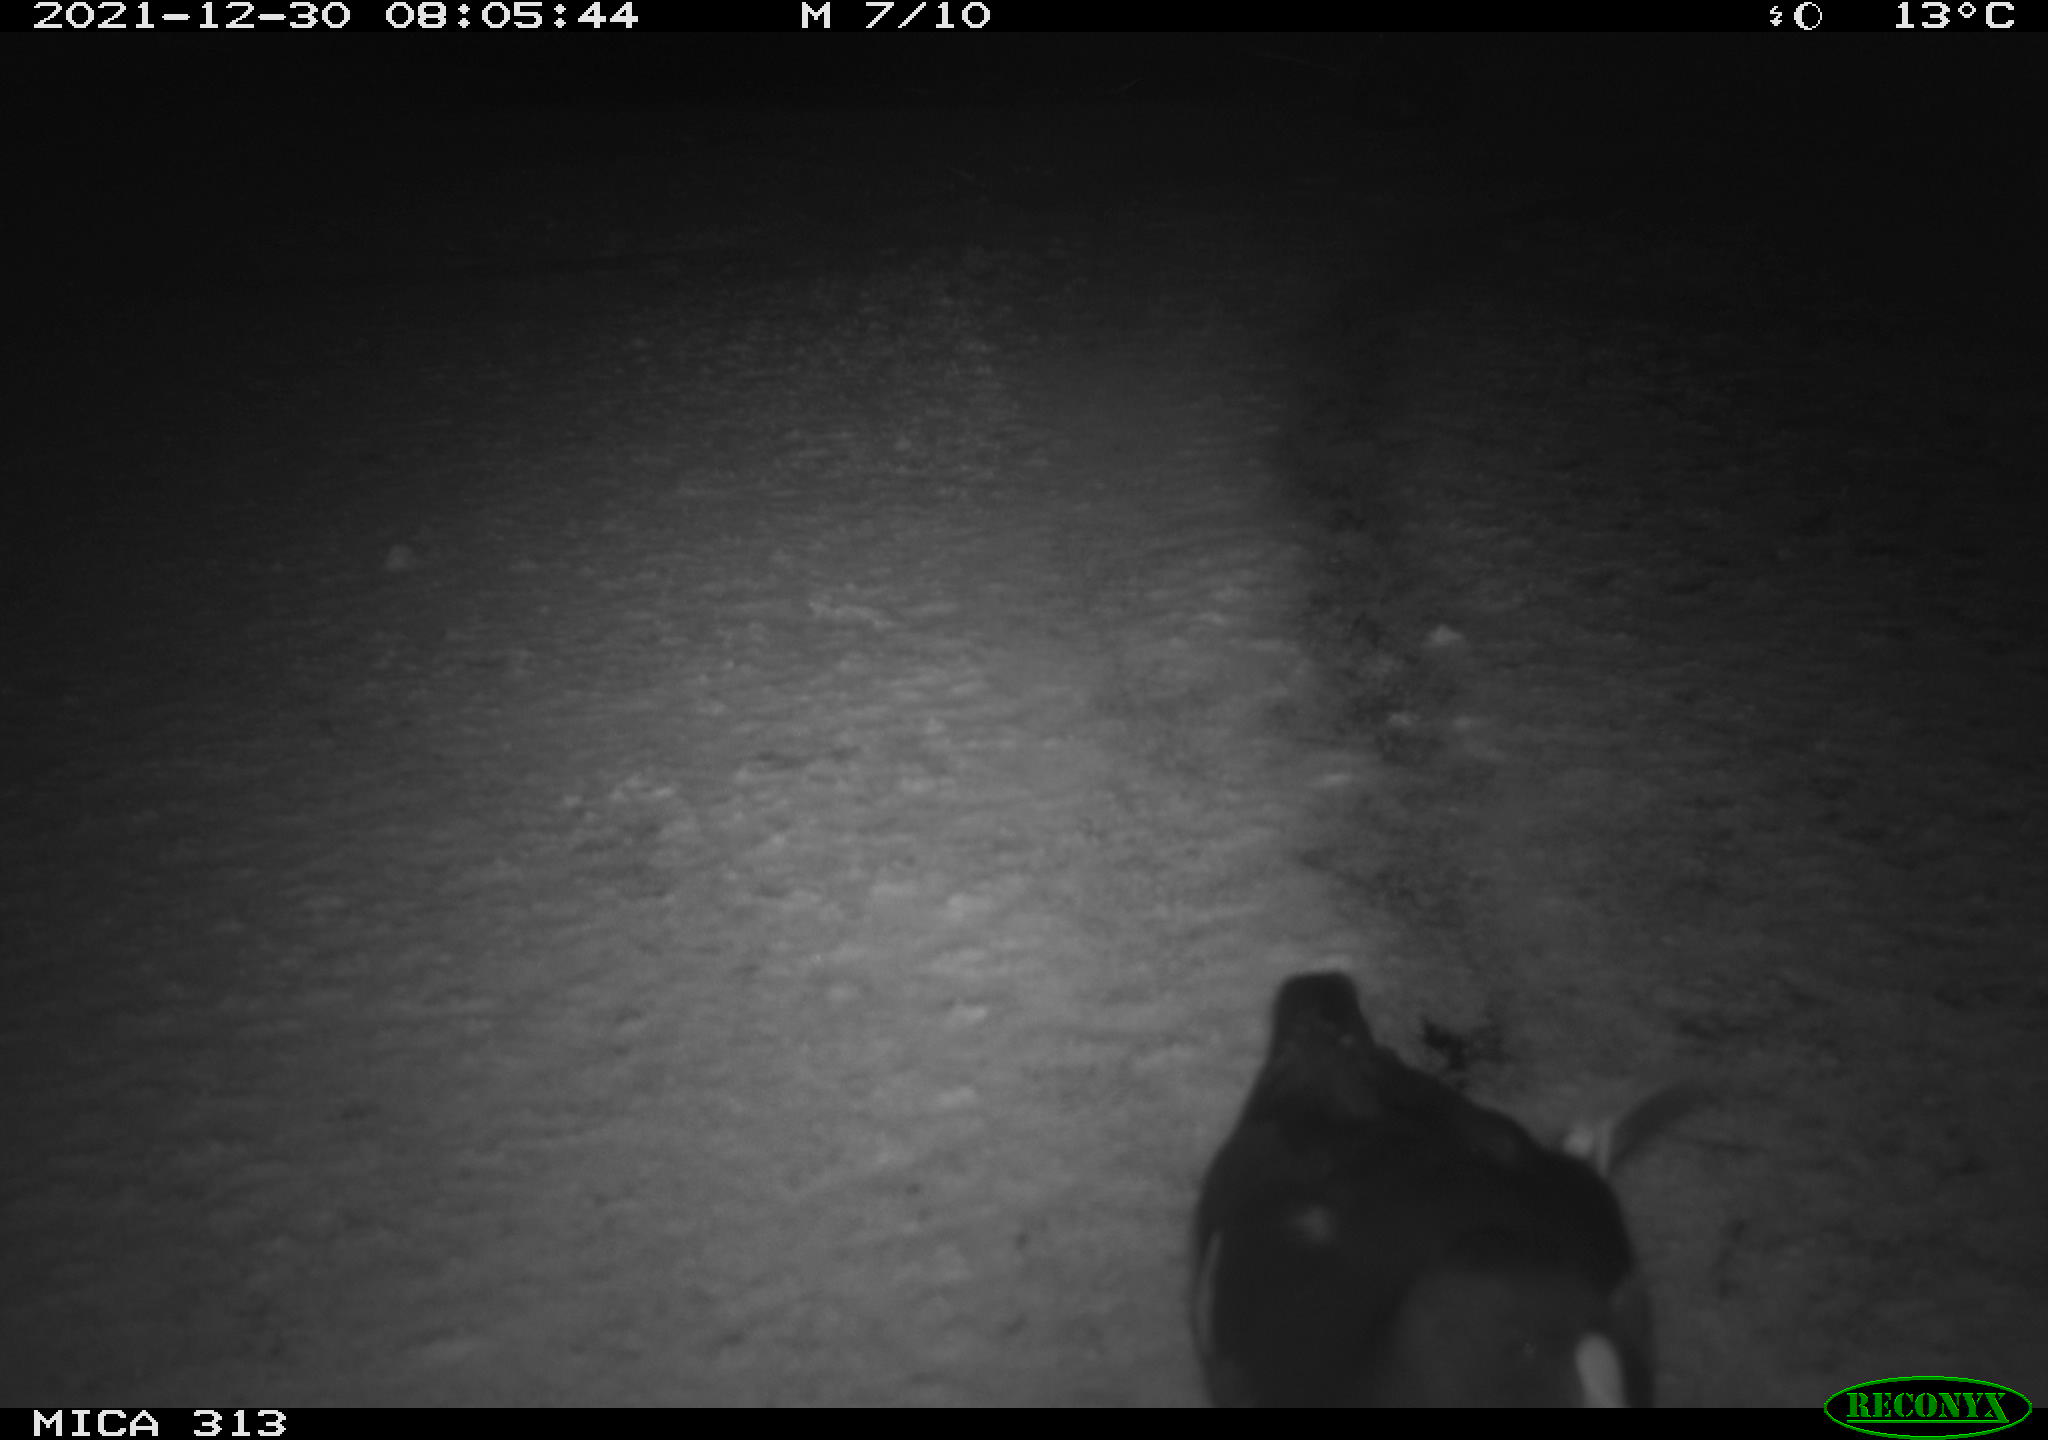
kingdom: Animalia
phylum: Chordata
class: Aves
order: Gruiformes
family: Rallidae
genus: Gallinula
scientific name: Gallinula chloropus
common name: Common moorhen
